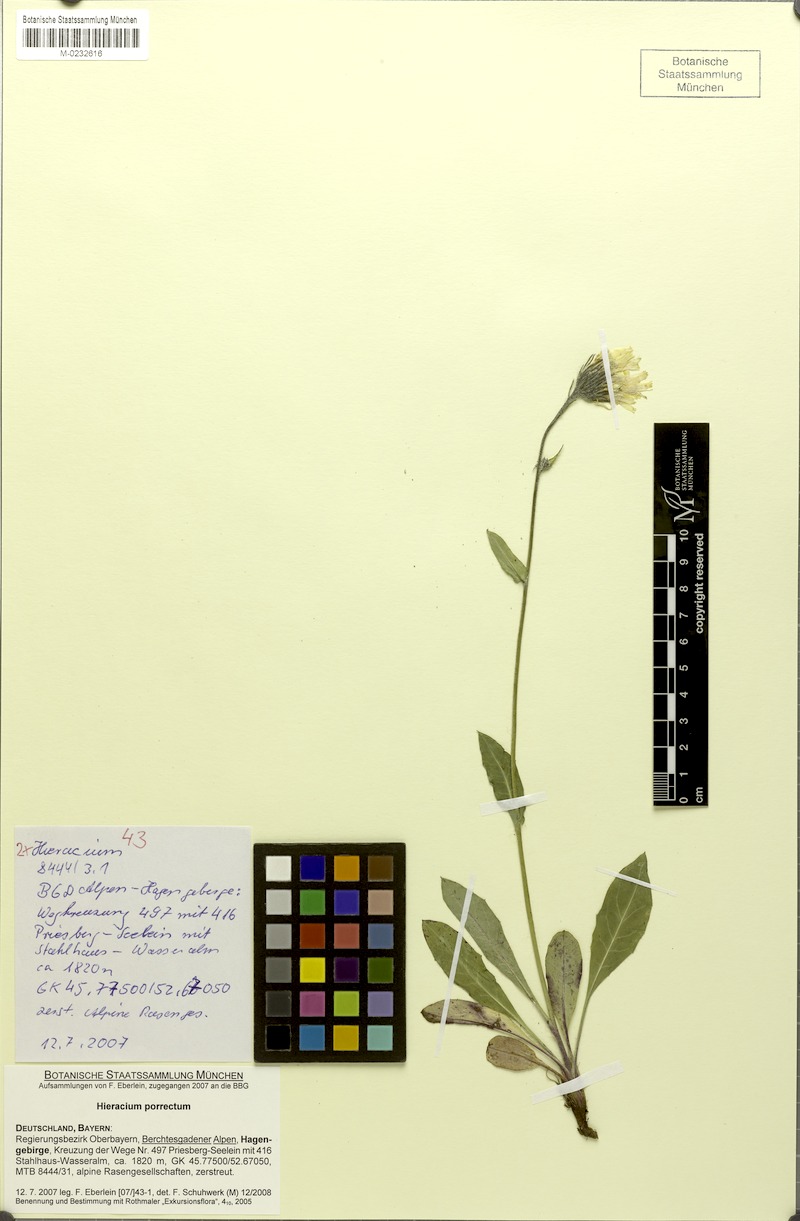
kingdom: Plantae
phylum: Tracheophyta
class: Magnoliopsida
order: Asterales
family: Asteraceae
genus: Hieracium
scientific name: Hieracium porrectum
